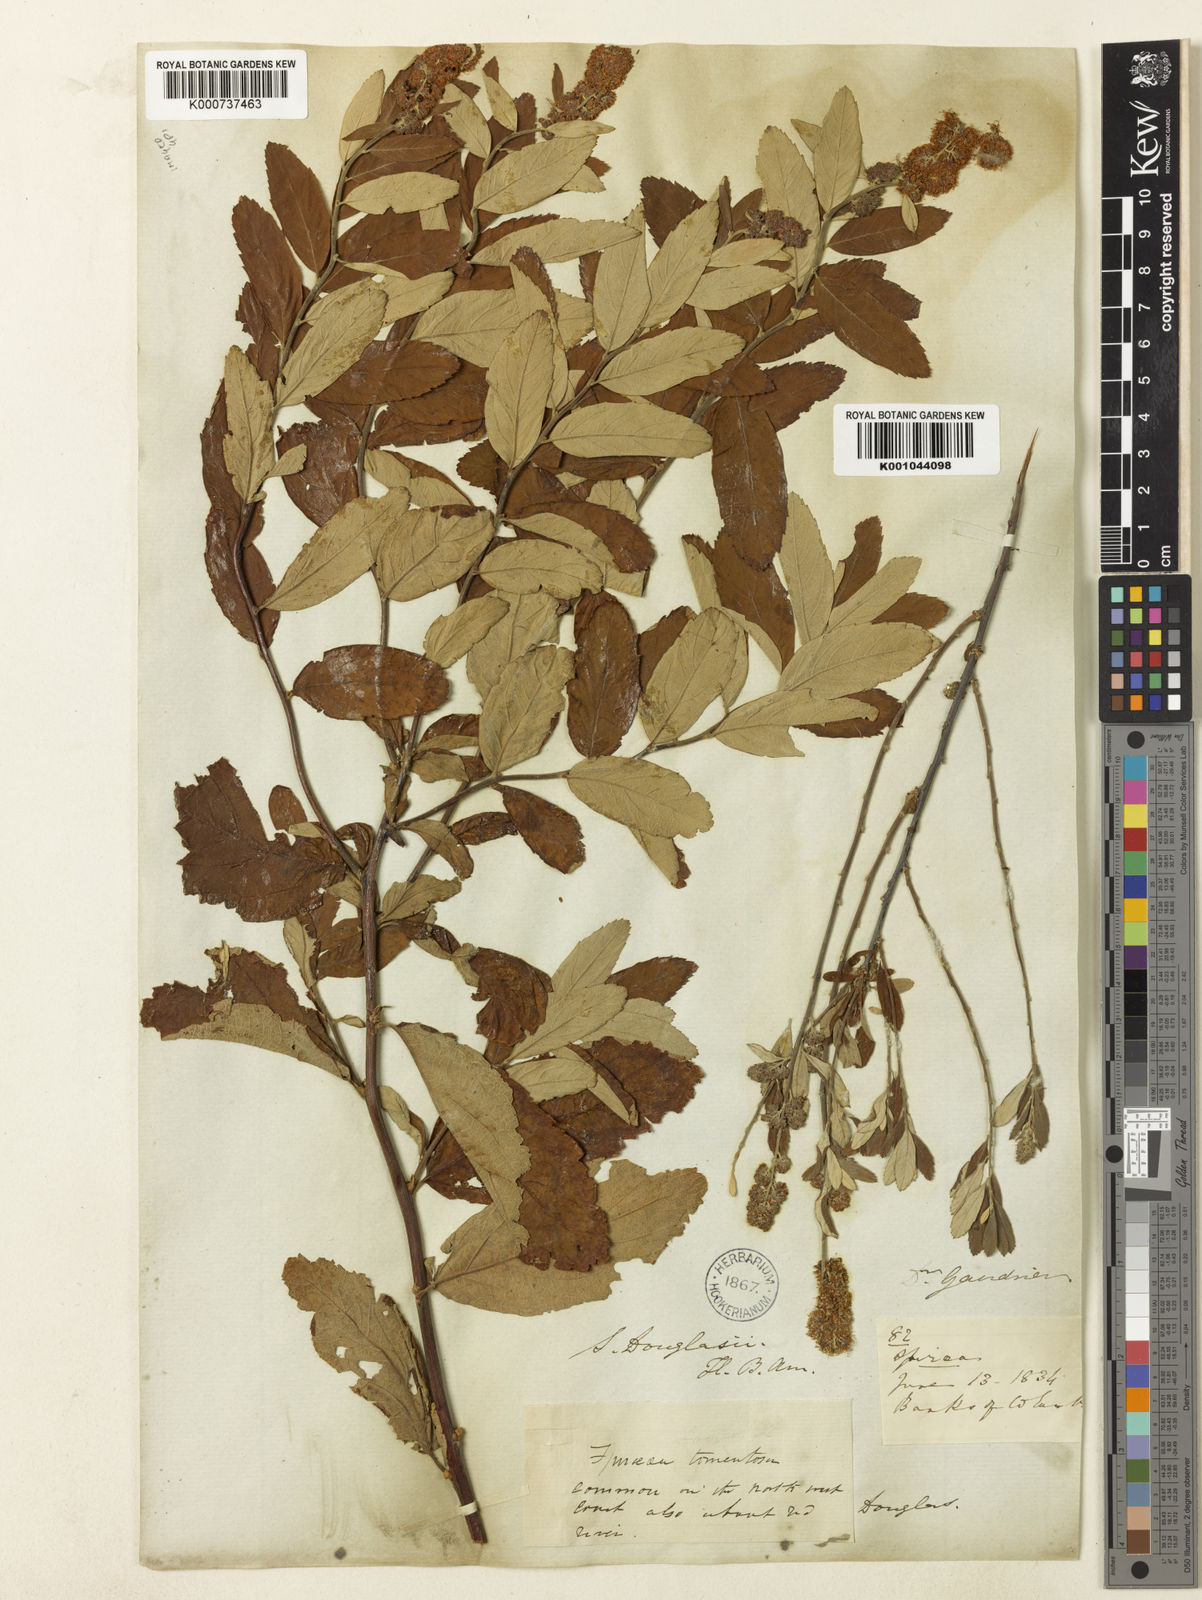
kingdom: Plantae
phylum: Tracheophyta
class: Magnoliopsida
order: Rosales
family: Rosaceae
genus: Spiraea
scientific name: Spiraea douglasii
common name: Steeplebush
